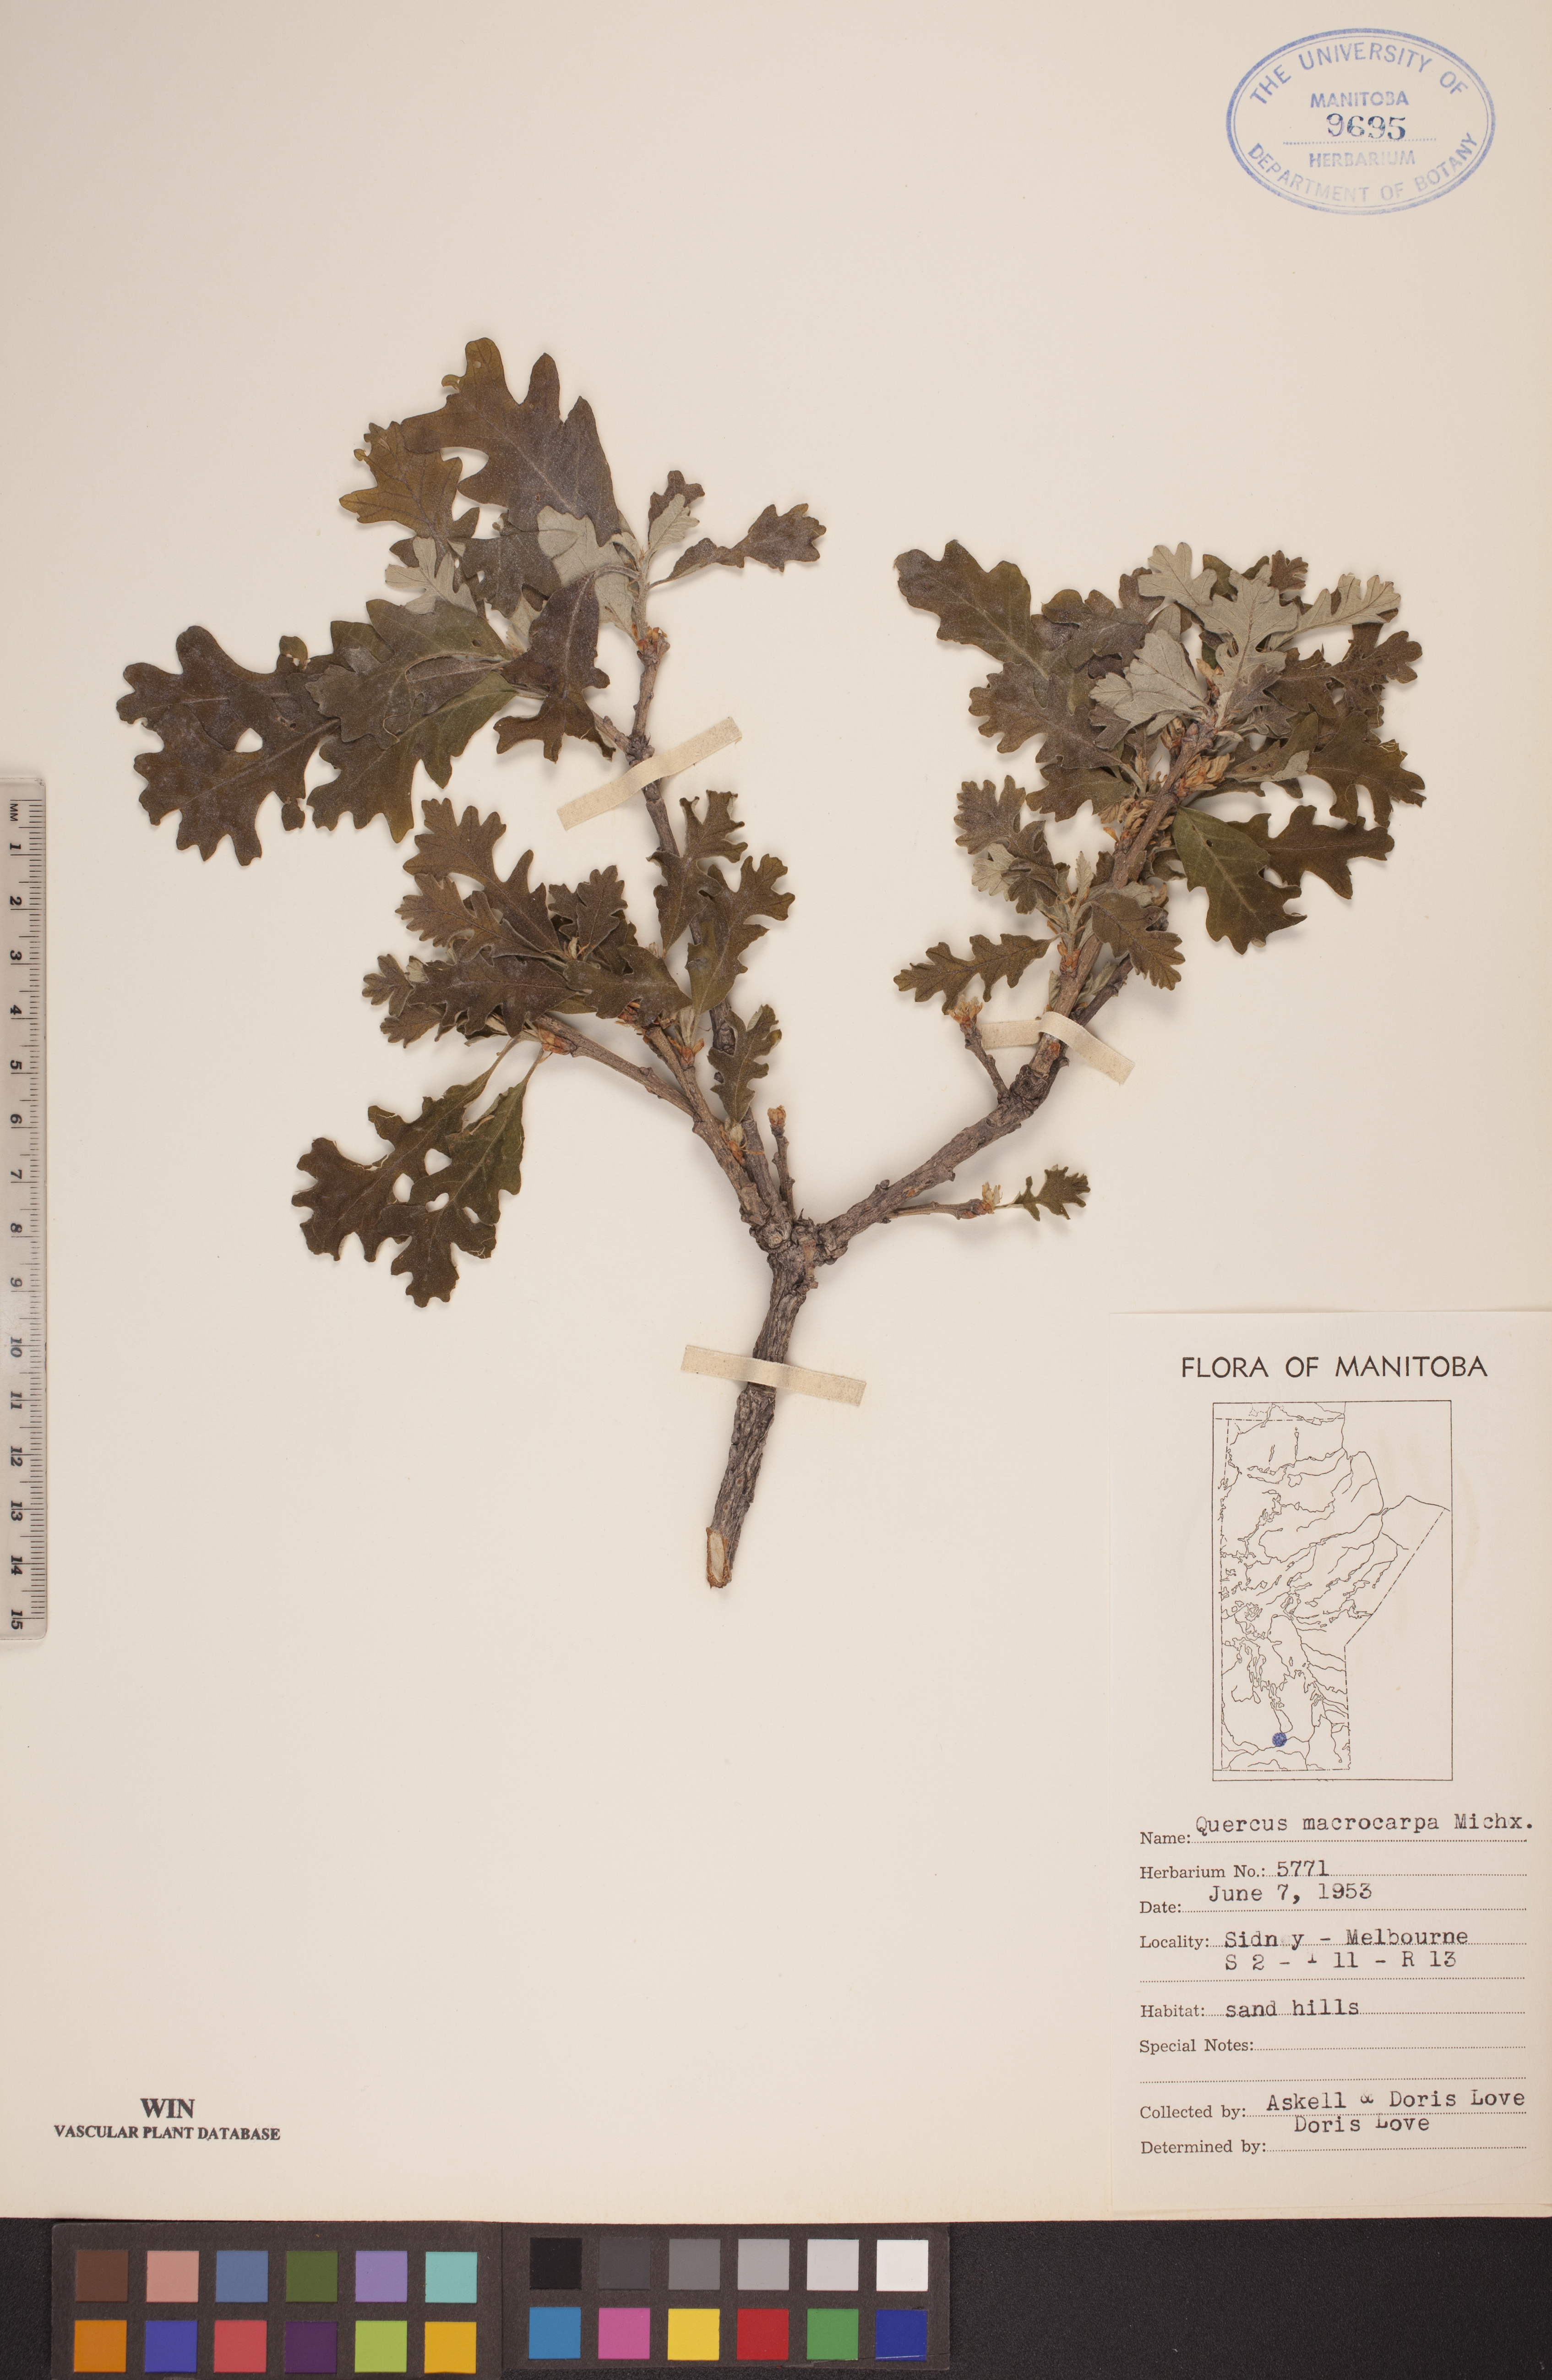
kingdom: Plantae
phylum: Tracheophyta
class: Magnoliopsida
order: Fagales
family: Fagaceae
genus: Quercus
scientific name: Quercus macrocarpa
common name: Bur oak
